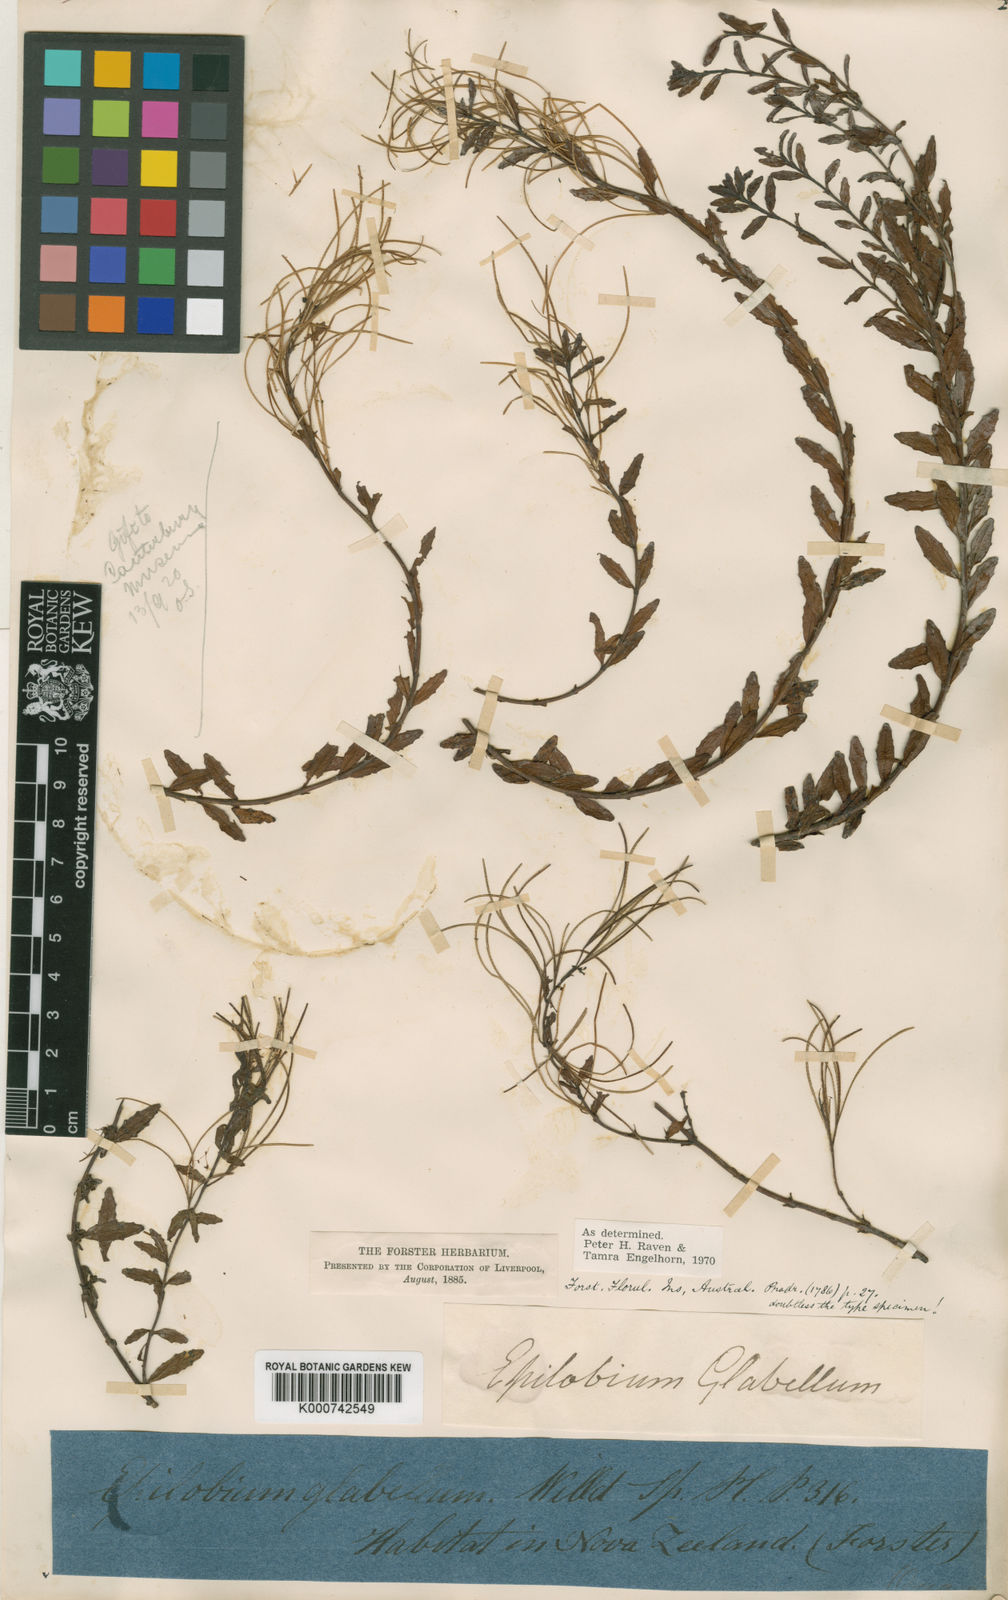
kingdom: Plantae
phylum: Tracheophyta
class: Magnoliopsida
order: Myrtales
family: Onagraceae
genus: Epilobium
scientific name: Epilobium glabellum
